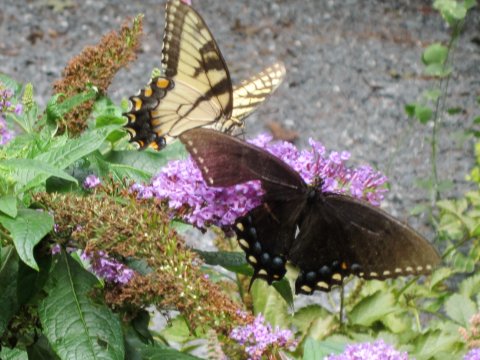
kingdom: Animalia
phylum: Arthropoda
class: Insecta
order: Lepidoptera
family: Papilionidae
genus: Pterourus
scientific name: Pterourus glaucus
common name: Eastern Tiger Swallowtail
